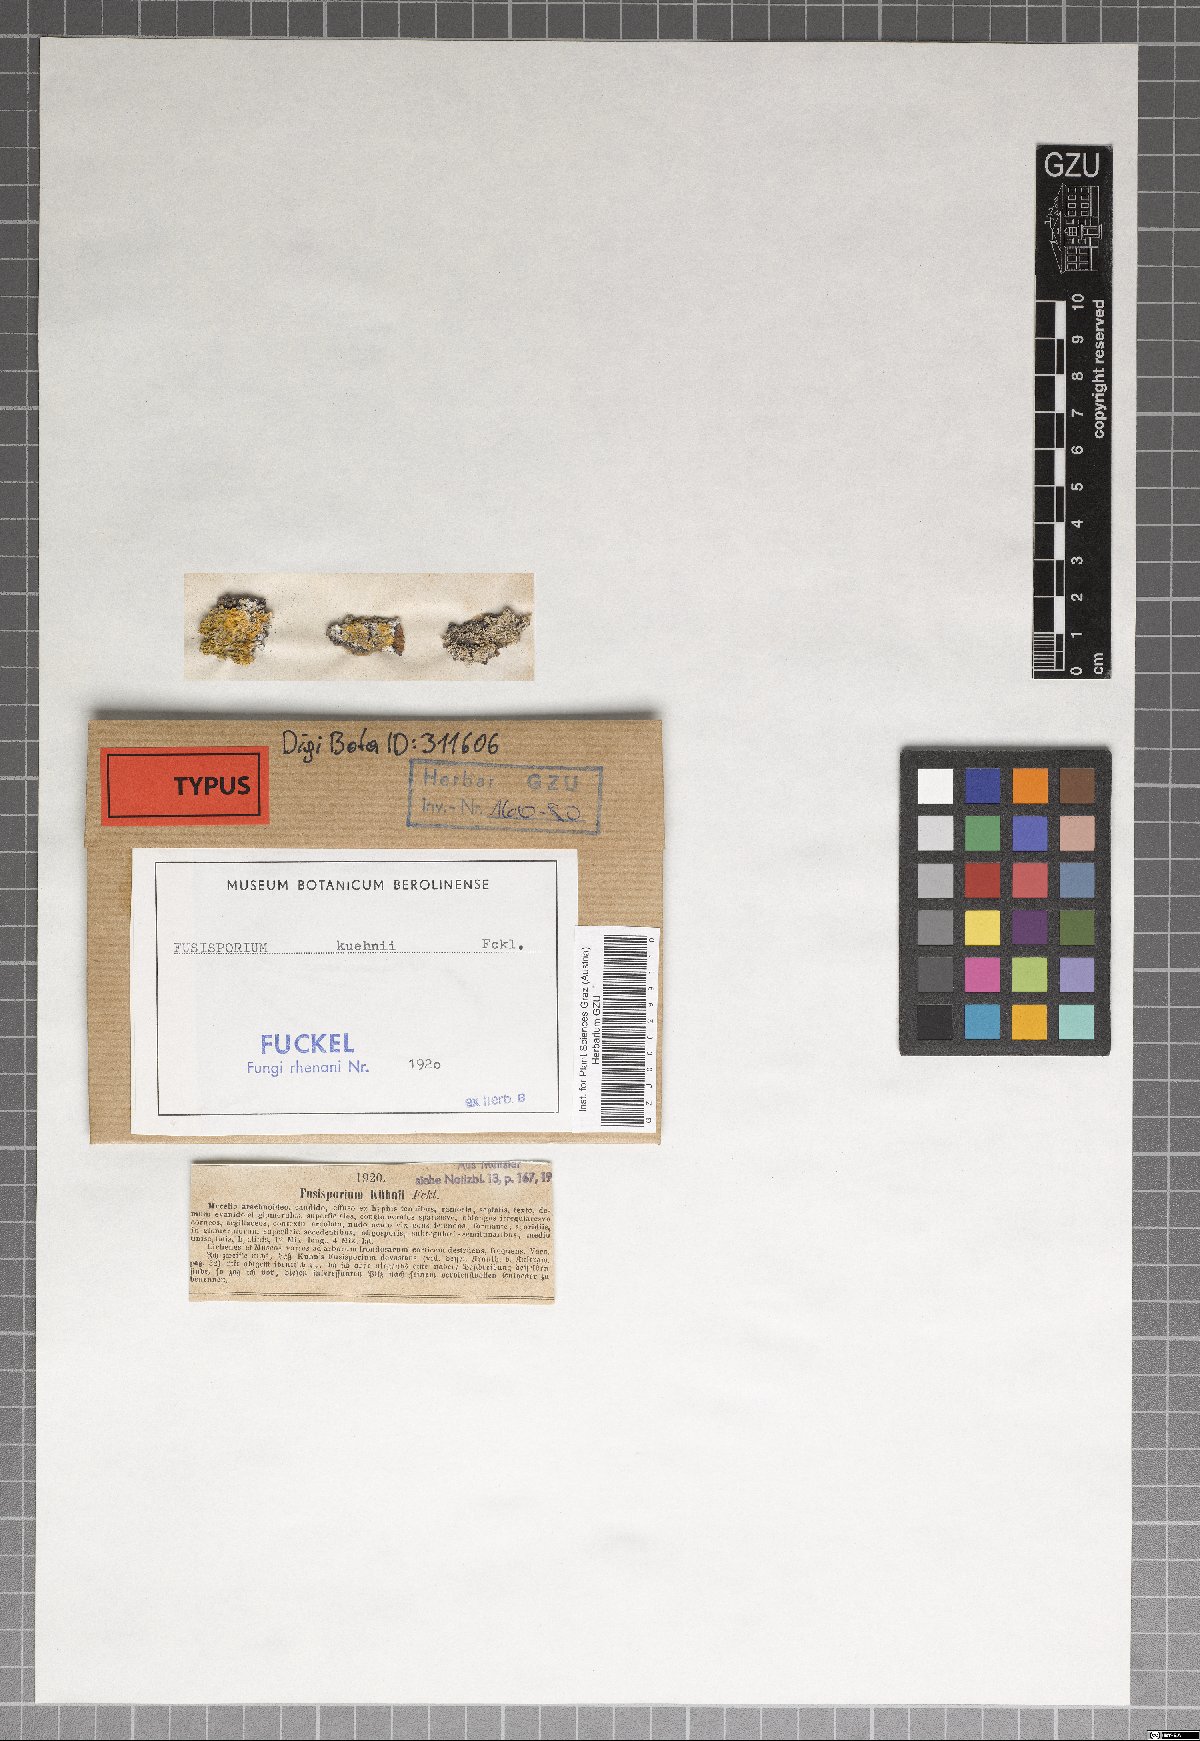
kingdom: Fungi
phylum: Ascomycota
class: Sordariomycetes
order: Hypocreales
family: Nectriaceae
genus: Fusisporium
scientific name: Fusisporium kuehnii
